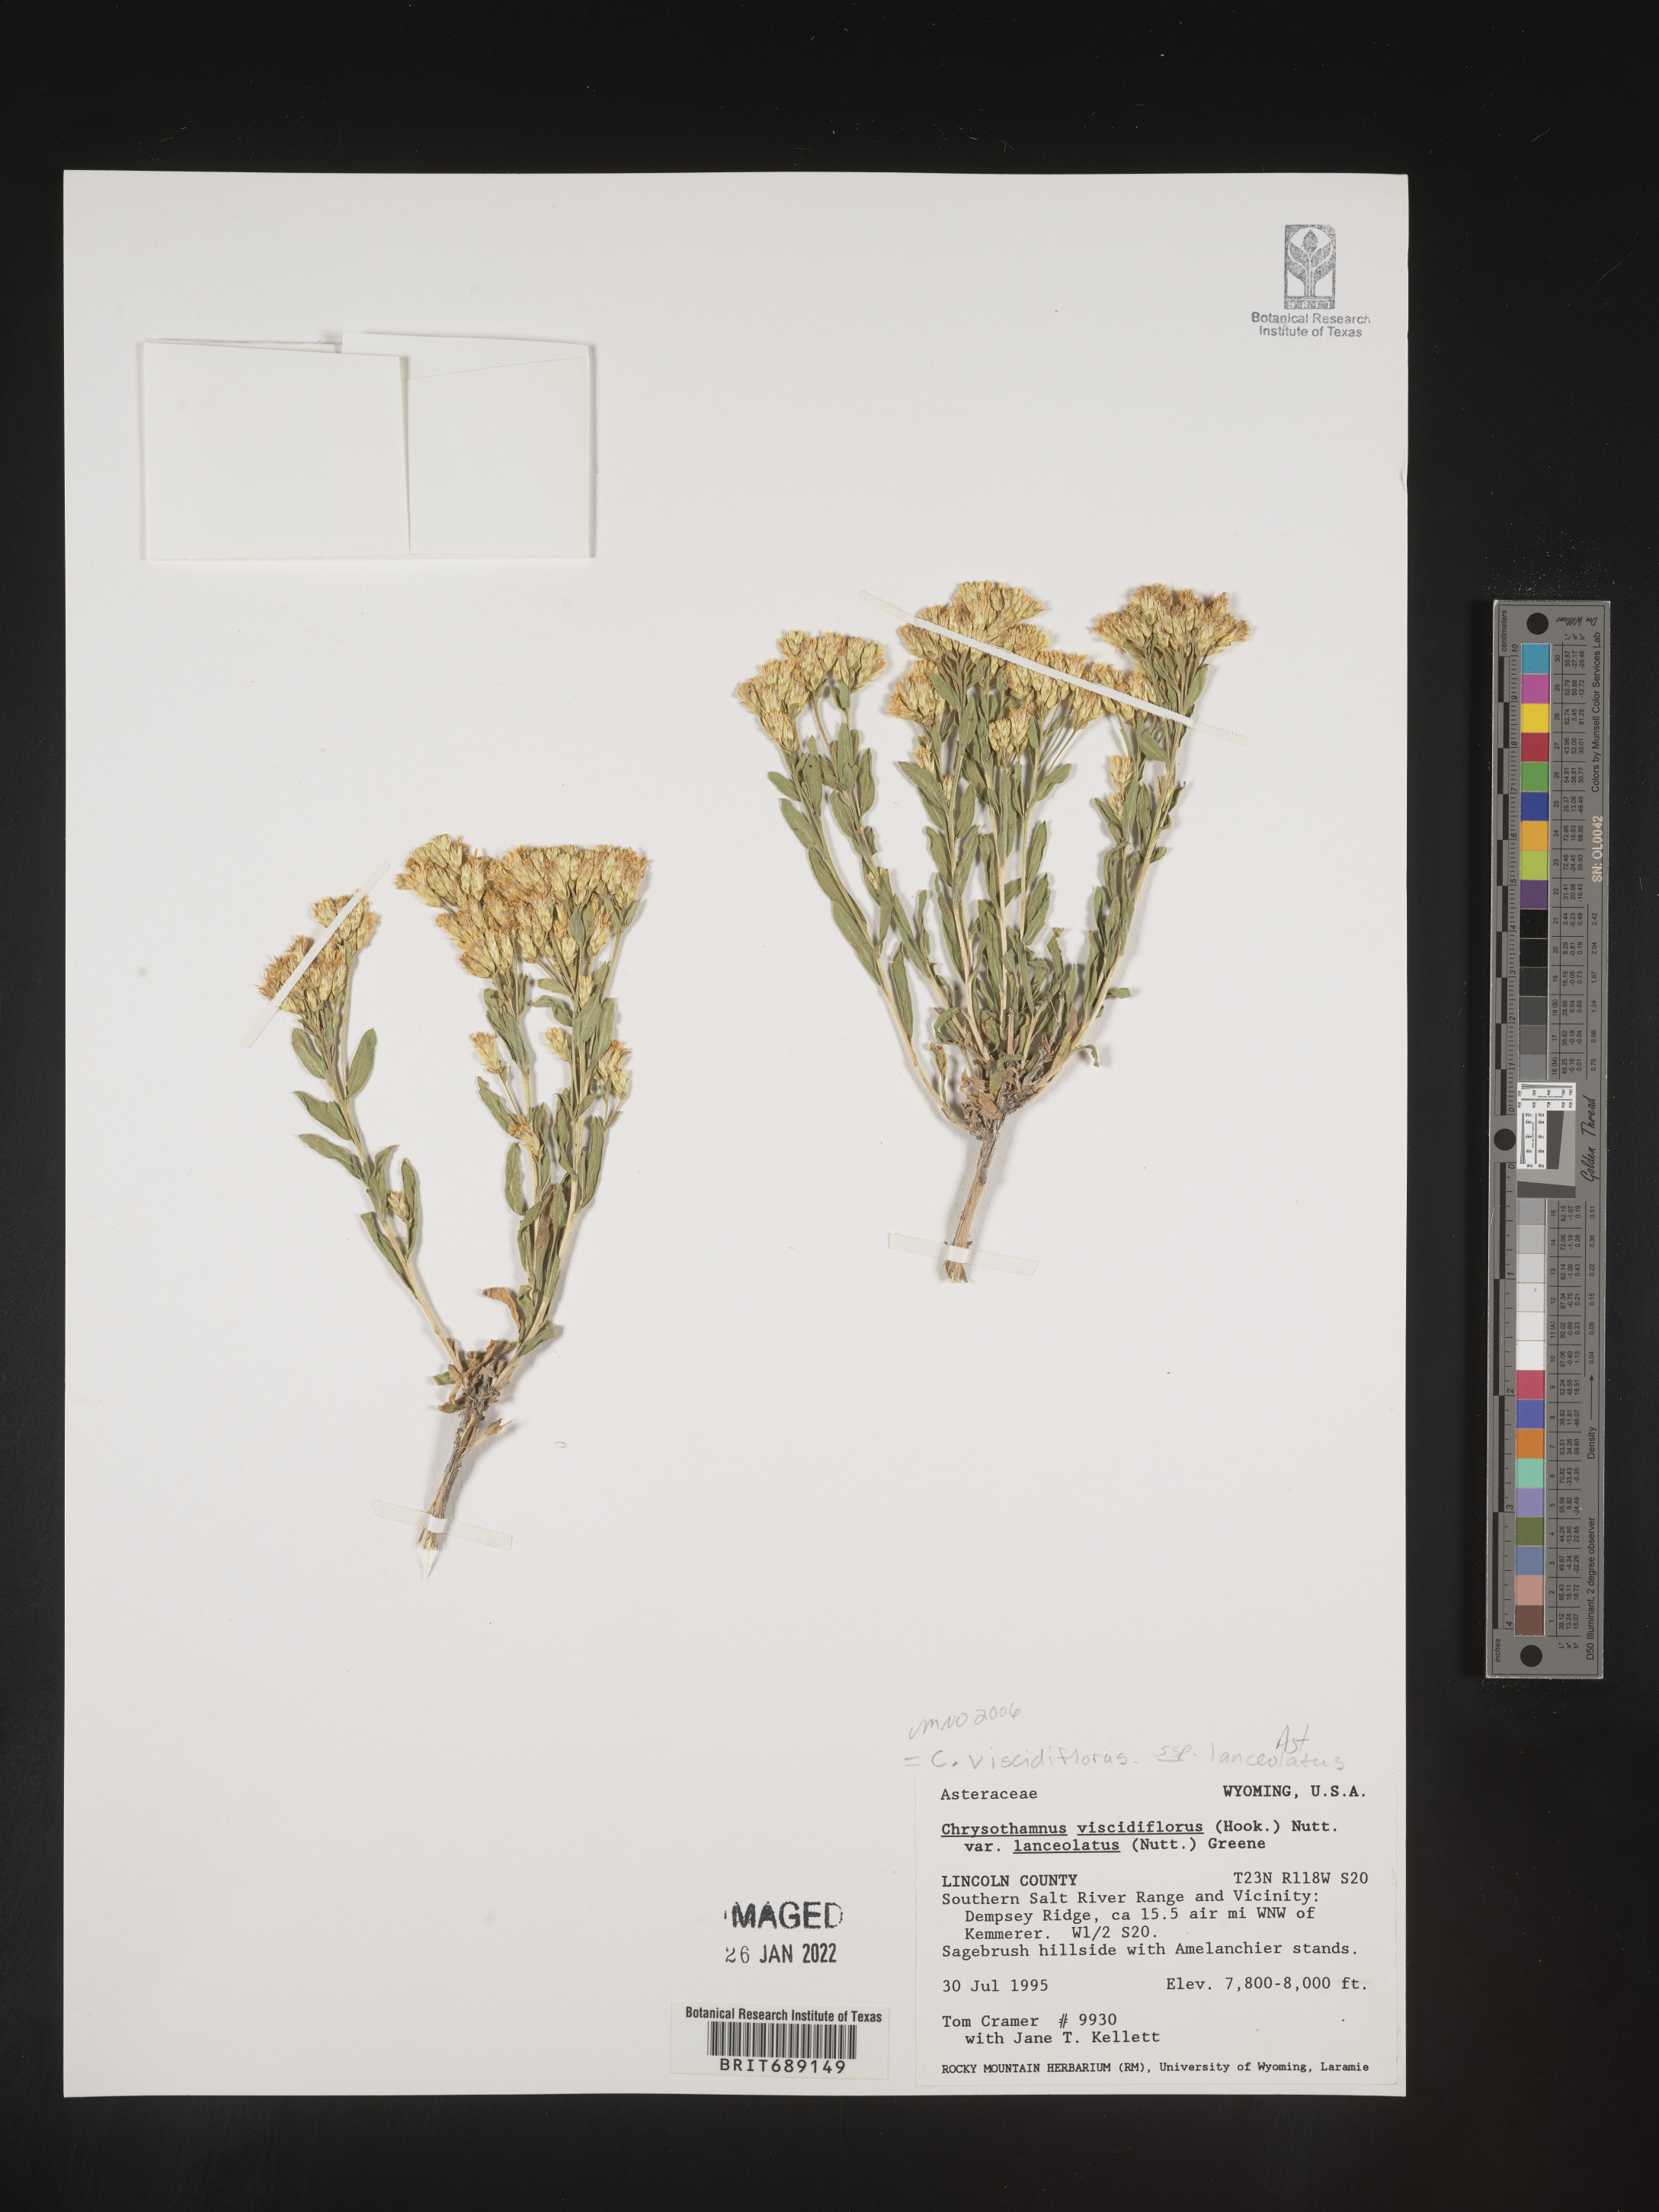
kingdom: Plantae
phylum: Tracheophyta
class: Magnoliopsida
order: Asterales
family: Asteraceae
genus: Chrysothamnus
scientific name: Chrysothamnus viscidiflorus
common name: Yellow rabbitbrush
